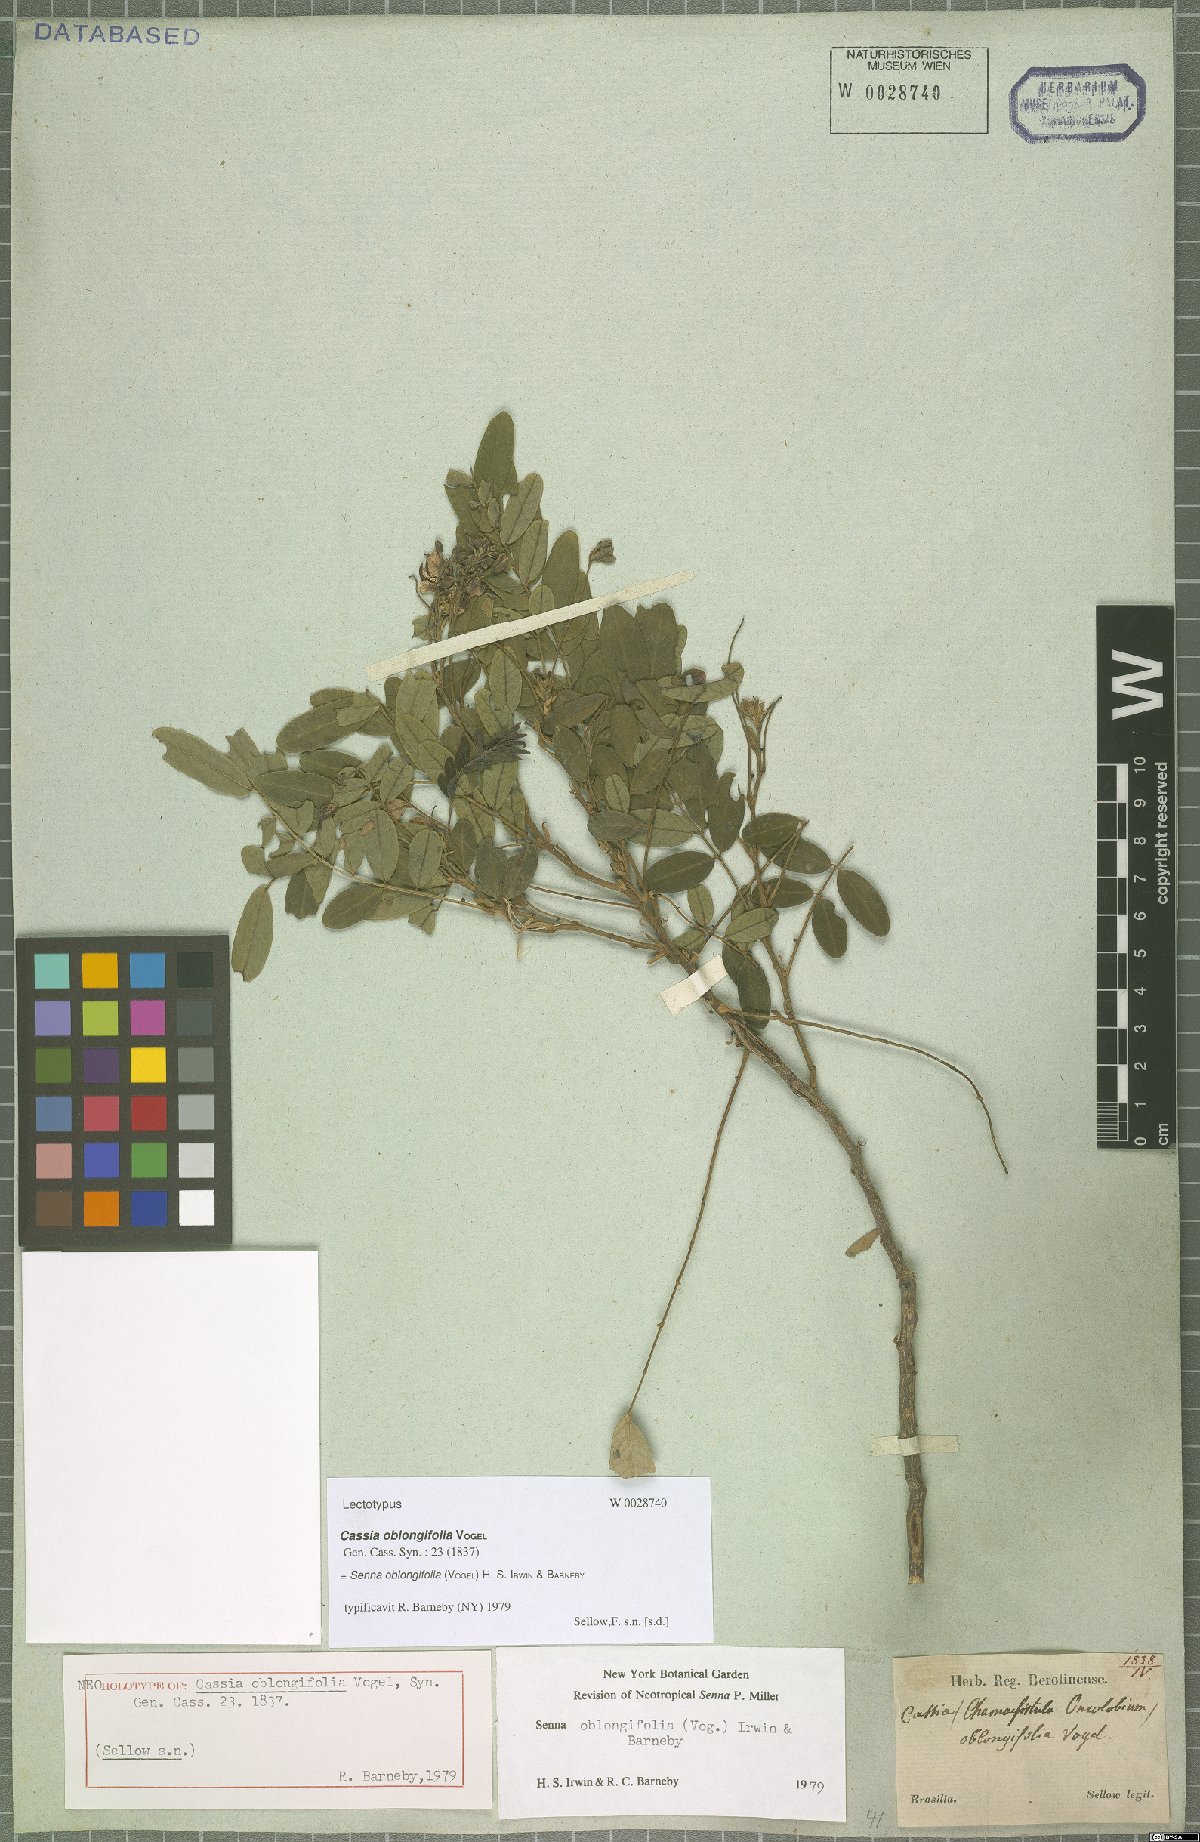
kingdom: Plantae
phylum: Tracheophyta
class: Magnoliopsida
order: Fabales
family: Fabaceae
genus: Senna
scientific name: Senna oblongifolia
